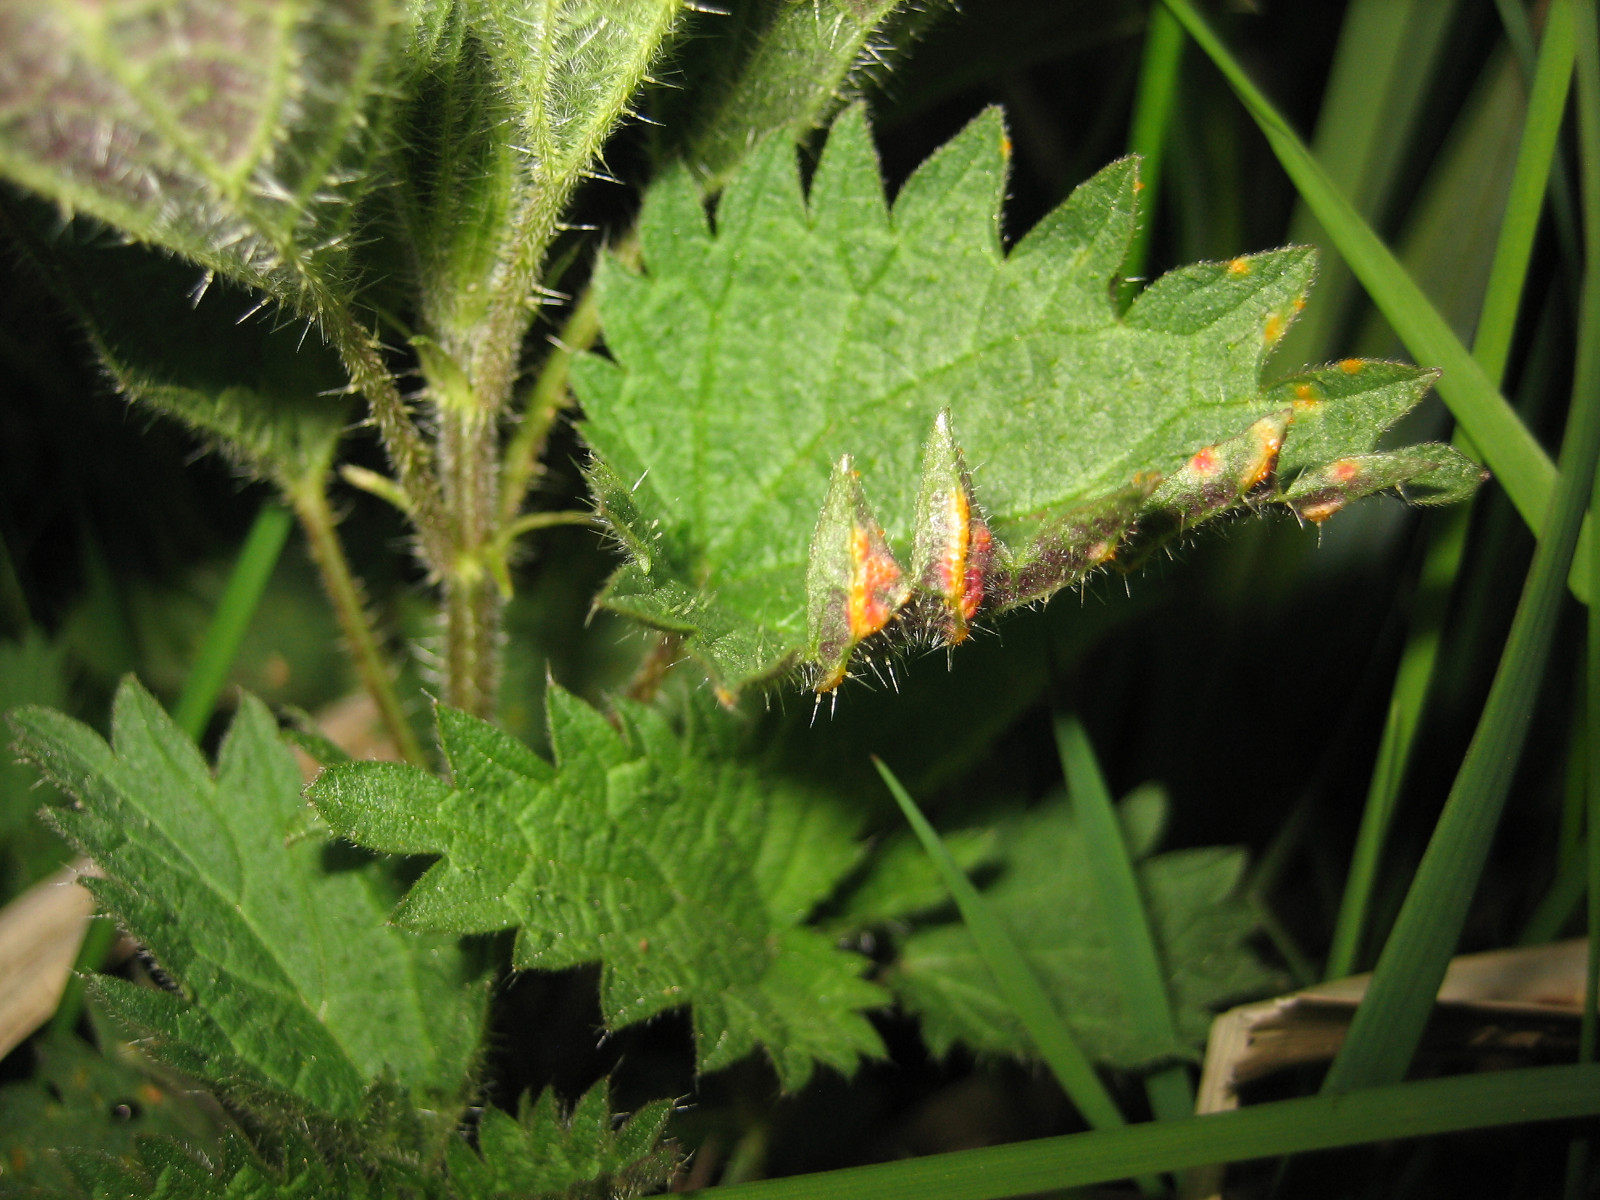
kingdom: Fungi
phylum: Basidiomycota
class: Pucciniomycetes
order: Pucciniales
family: Pucciniaceae
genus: Puccinia
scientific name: Puccinia urticata
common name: nældegalle-tvecellerust
